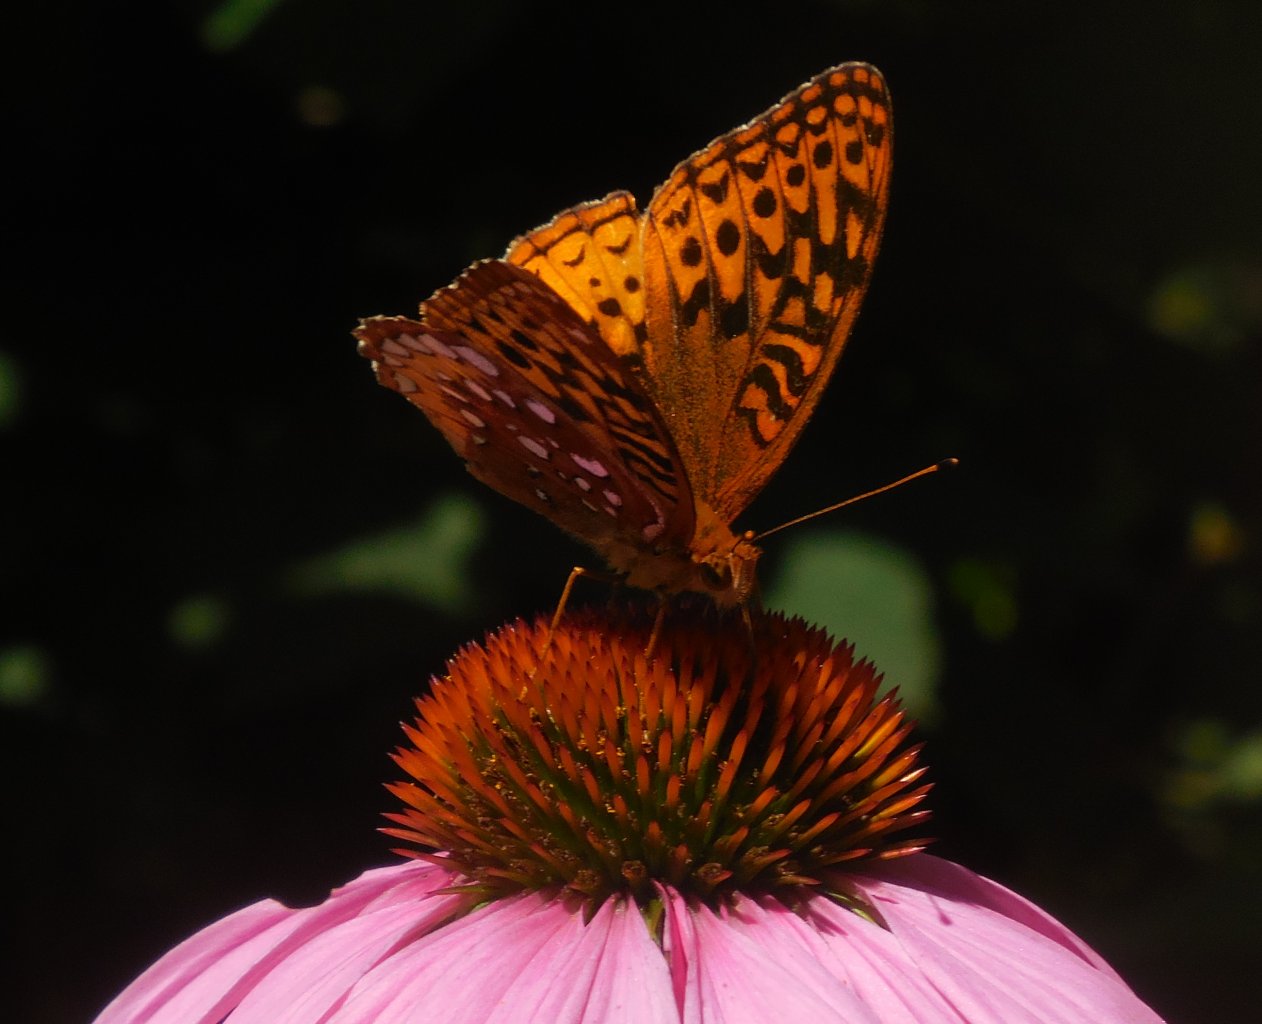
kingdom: Animalia
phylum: Arthropoda
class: Insecta
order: Lepidoptera
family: Nymphalidae
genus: Speyeria
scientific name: Speyeria cybele
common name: Great Spangled Fritillary
